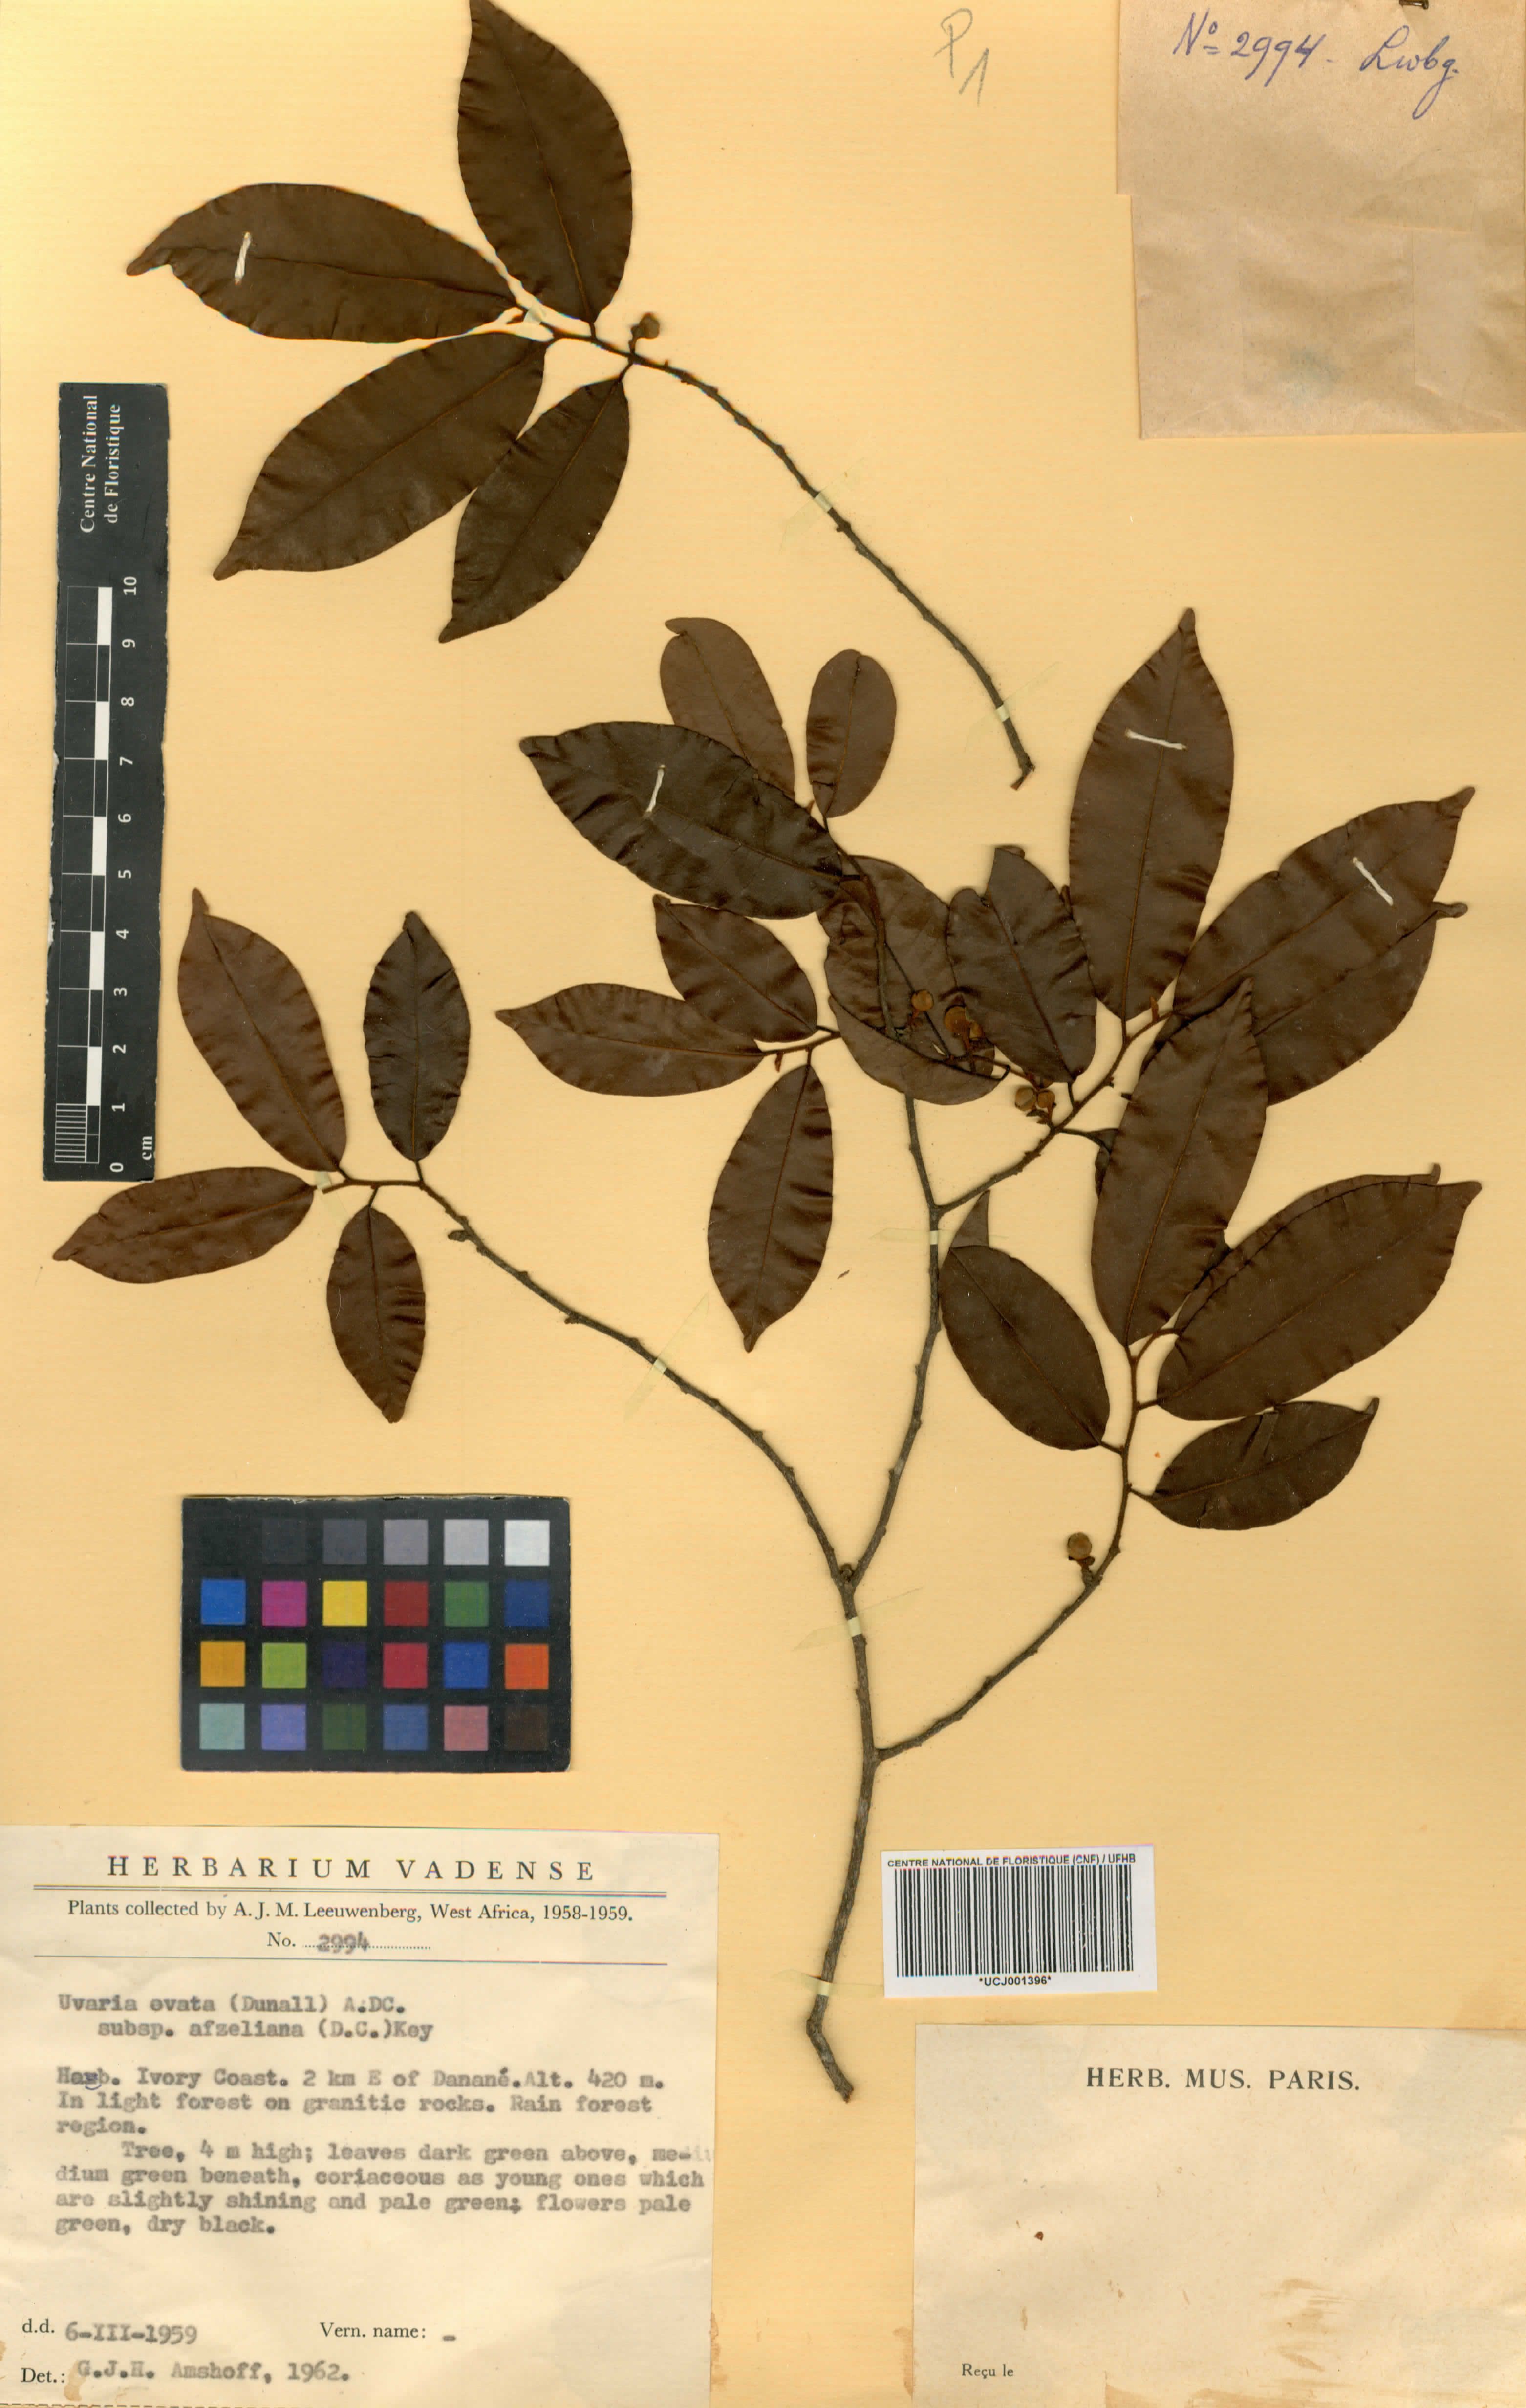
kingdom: Plantae
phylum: Tracheophyta
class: Magnoliopsida
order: Magnoliales
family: Annonaceae
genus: Uvaria
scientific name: Uvaria ovata
